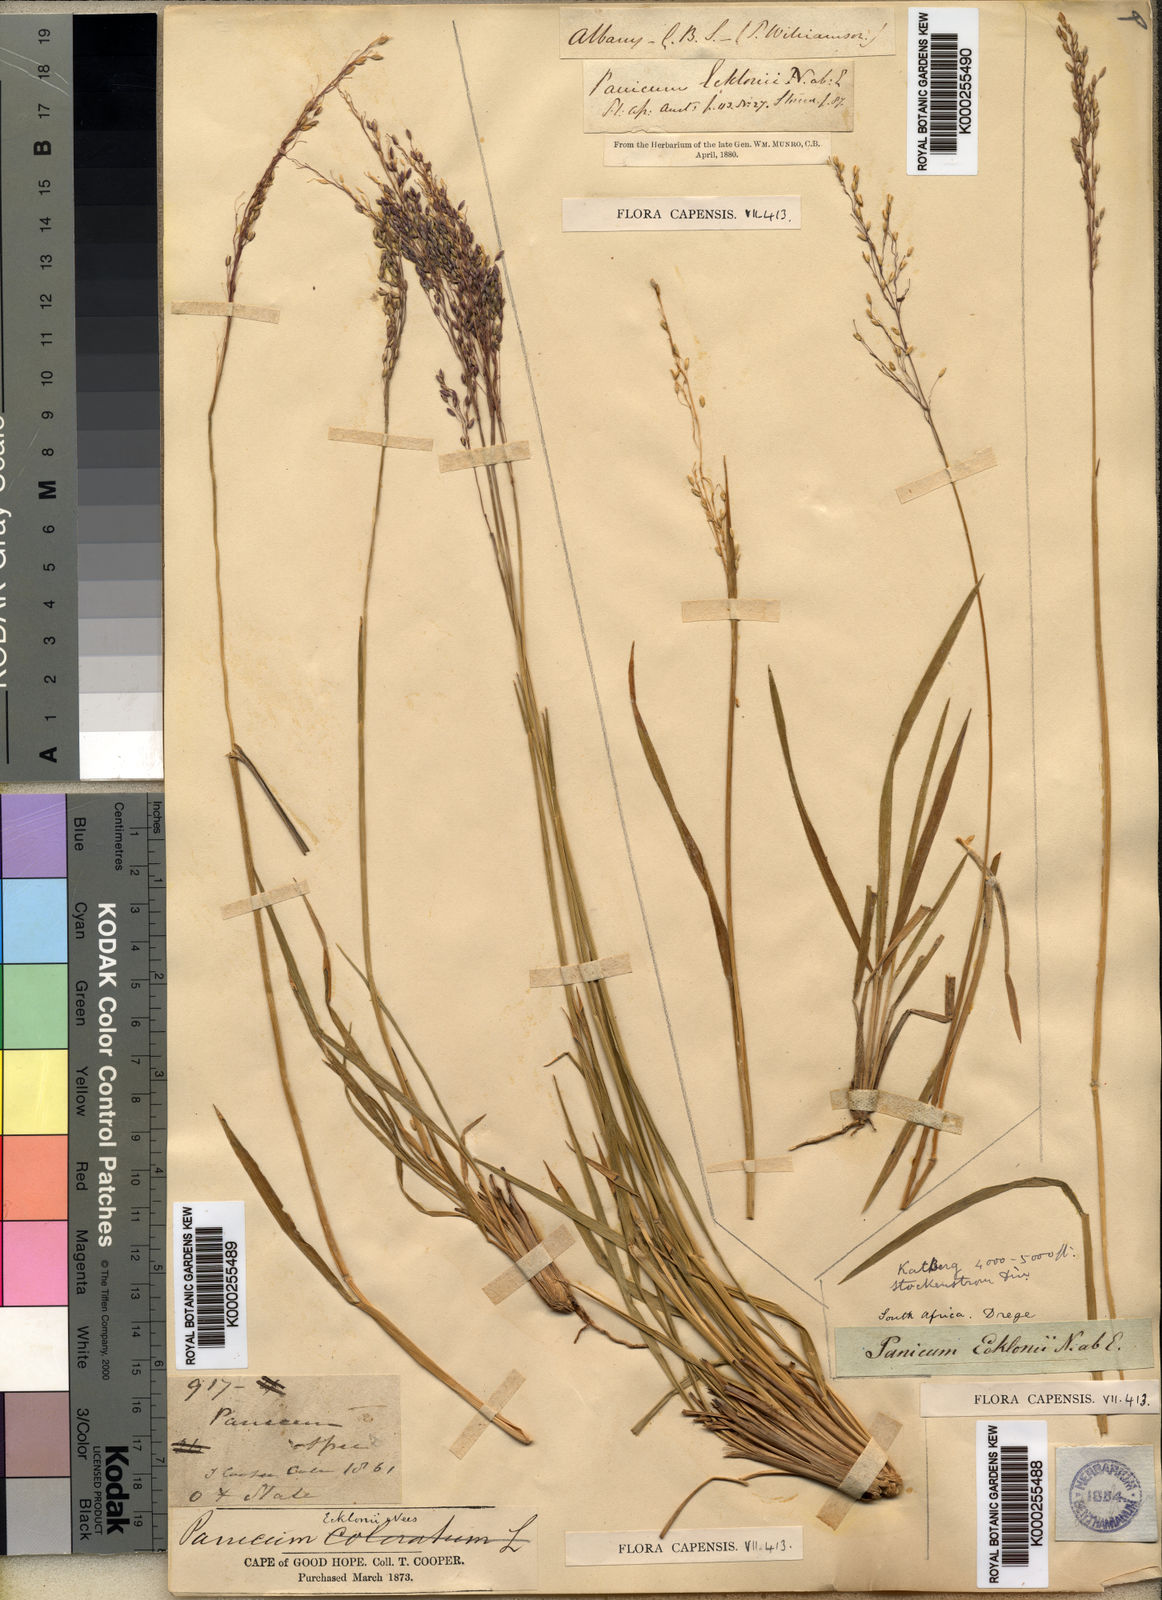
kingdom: Plantae
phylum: Tracheophyta
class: Liliopsida
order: Poales
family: Poaceae
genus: Adenochloa
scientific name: Adenochloa ecklonii
